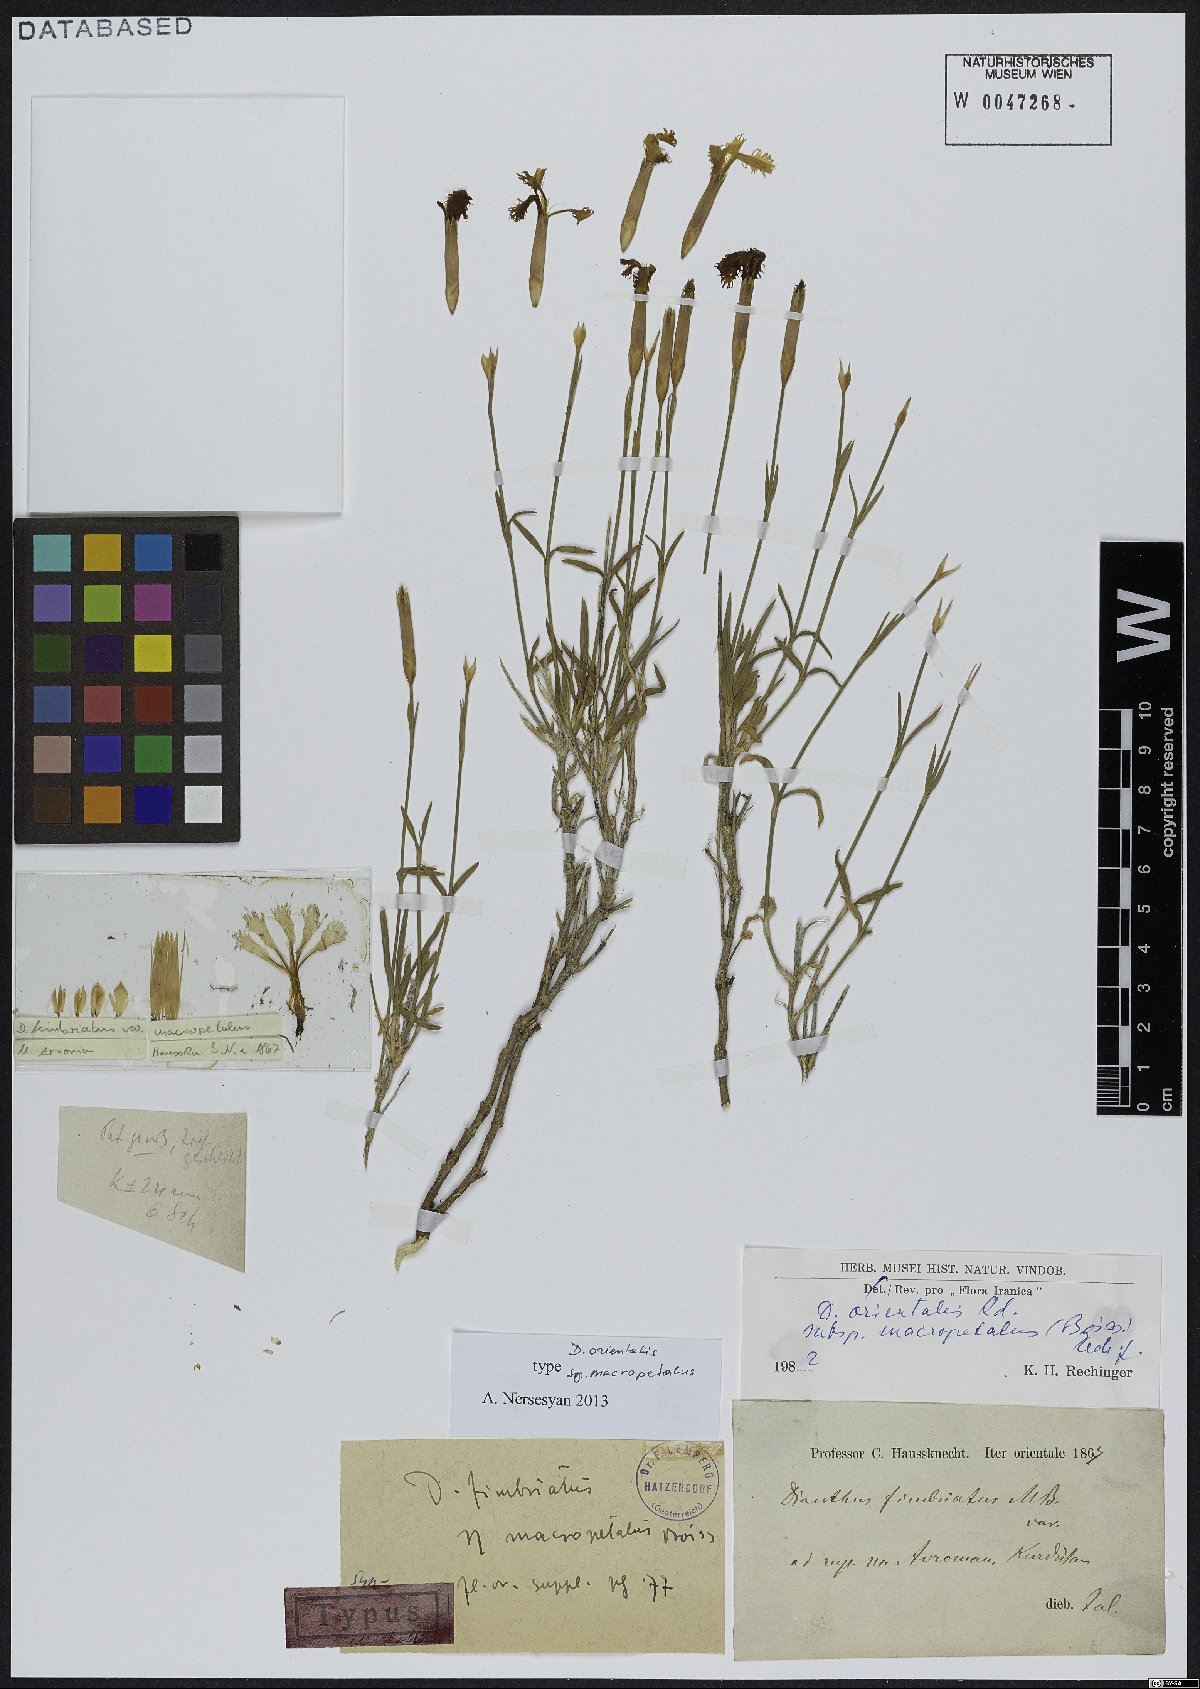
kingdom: Plantae
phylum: Tracheophyta
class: Magnoliopsida
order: Caryophyllales
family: Caryophyllaceae
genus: Dianthus
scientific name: Dianthus orientalis
